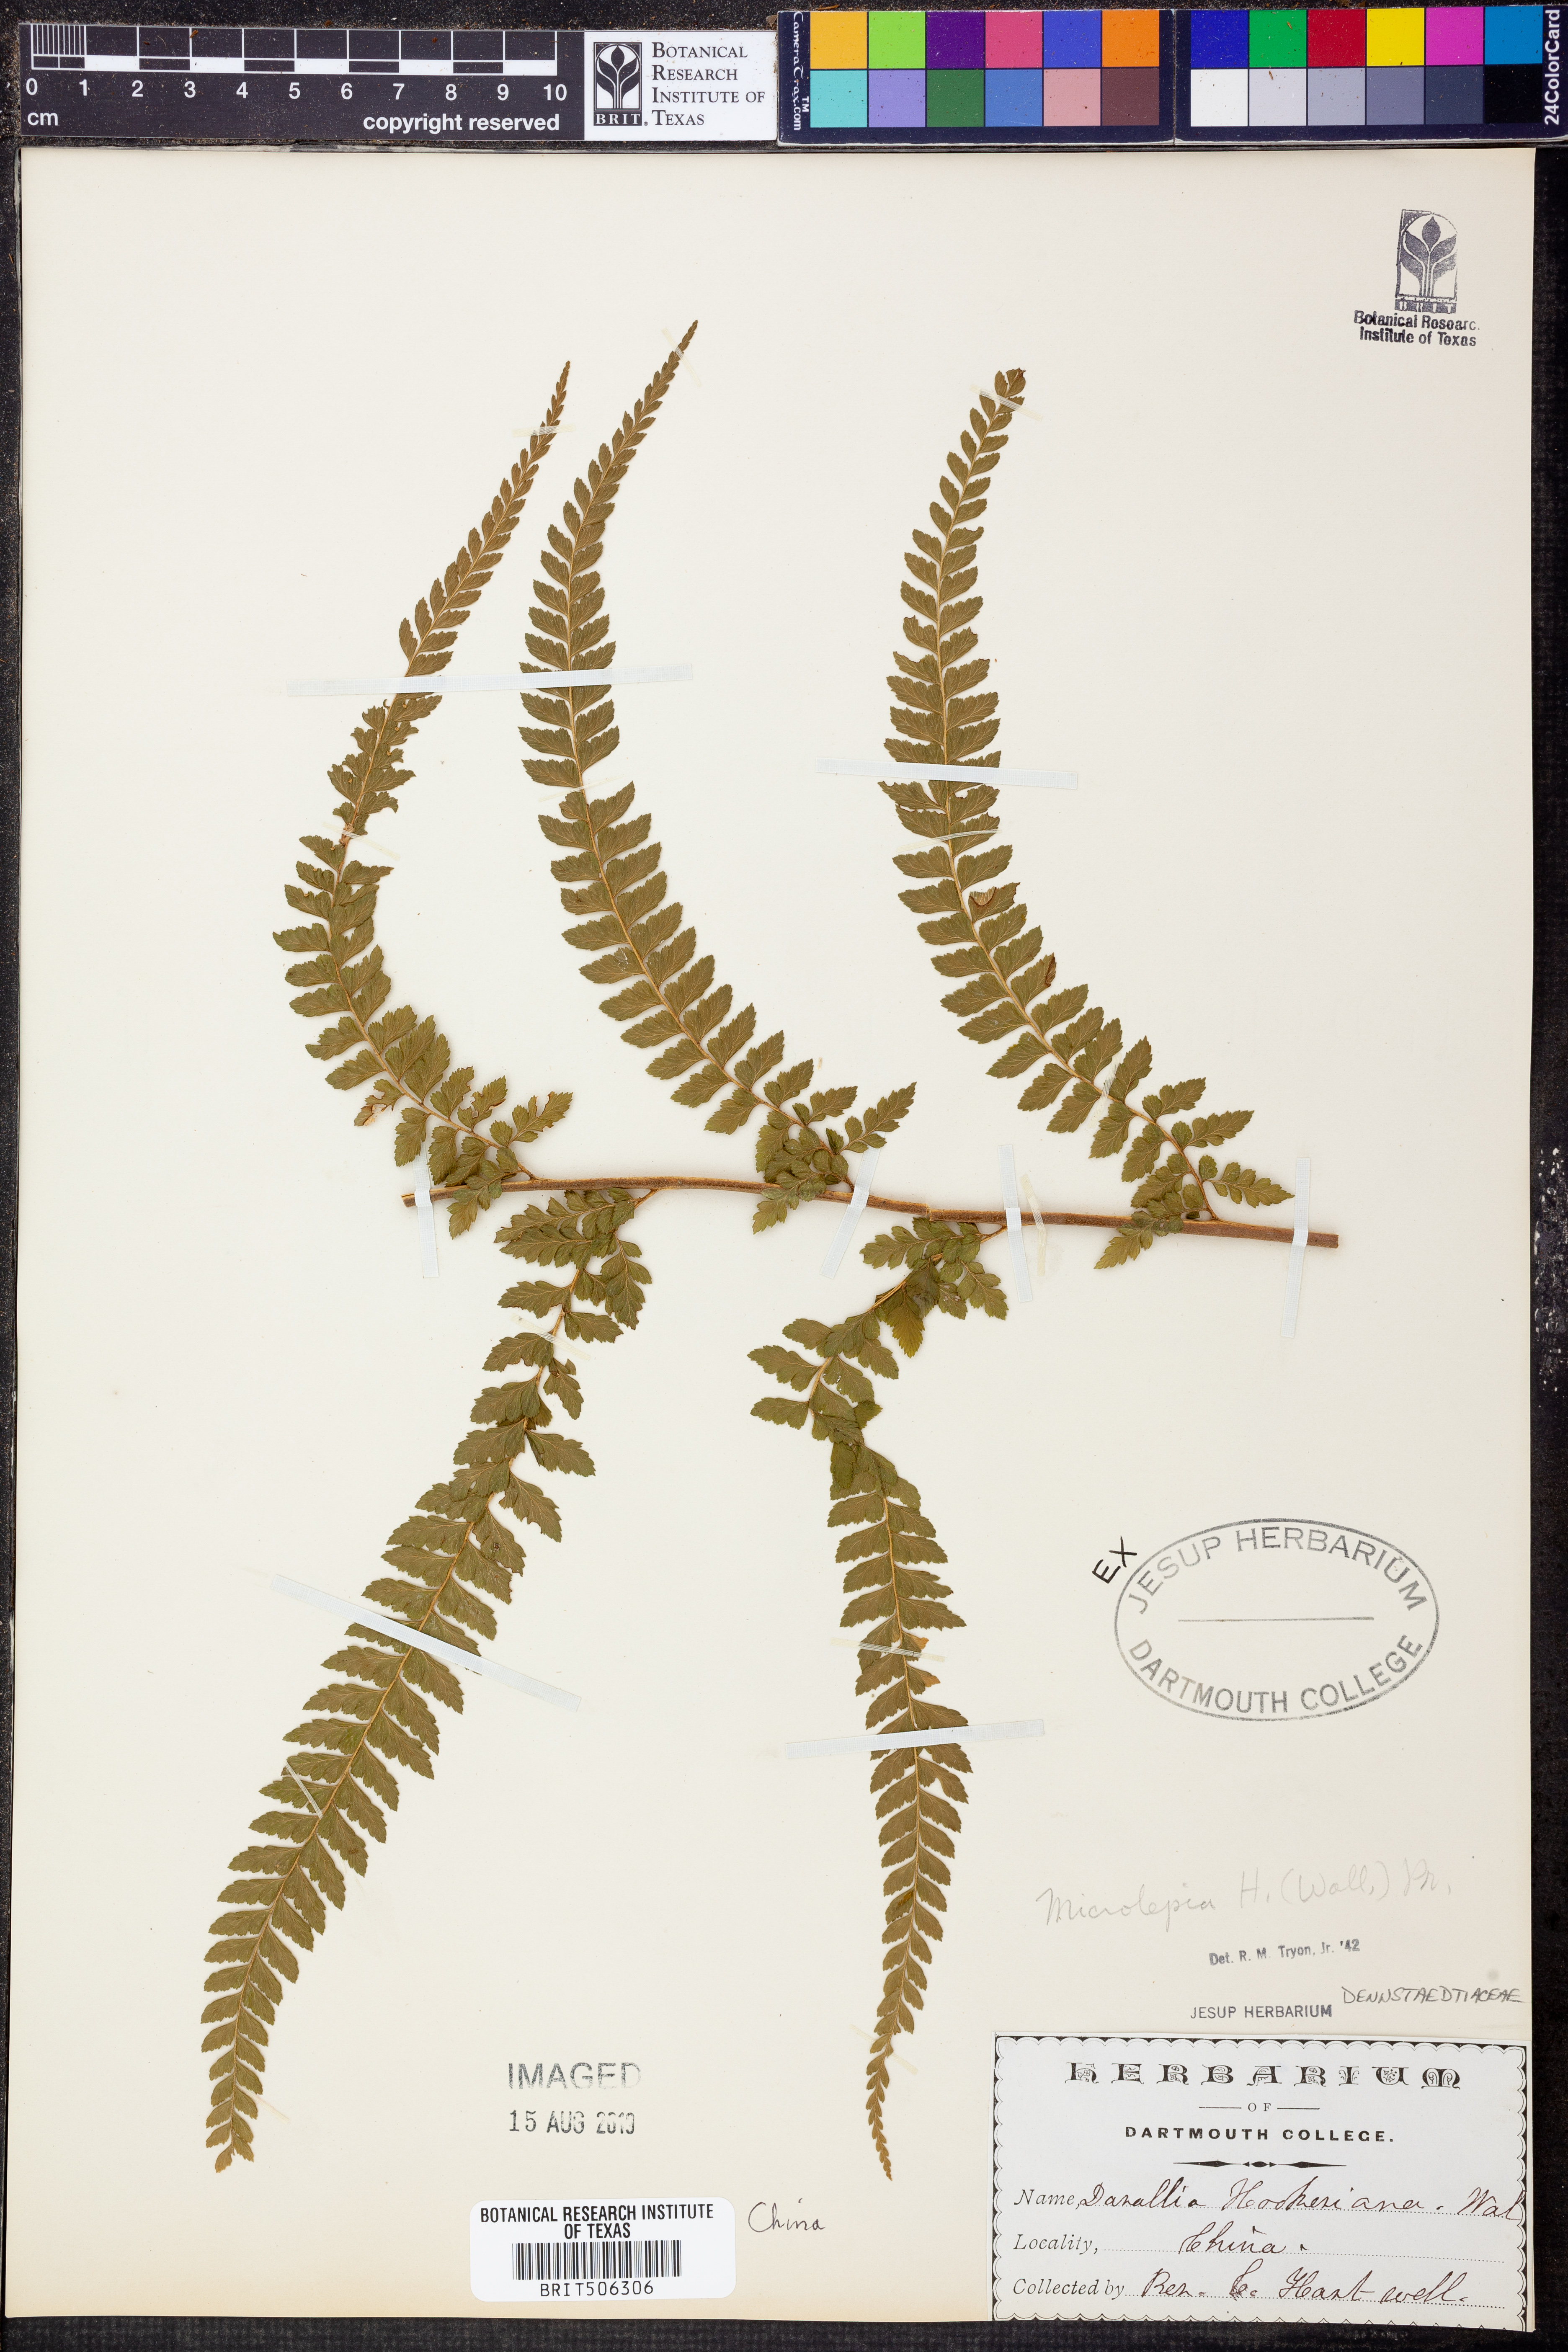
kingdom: Plantae
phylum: Tracheophyta
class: Polypodiopsida
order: Polypodiales
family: Dennstaedtiaceae
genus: Microlepia
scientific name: Microlepia hookeriana
